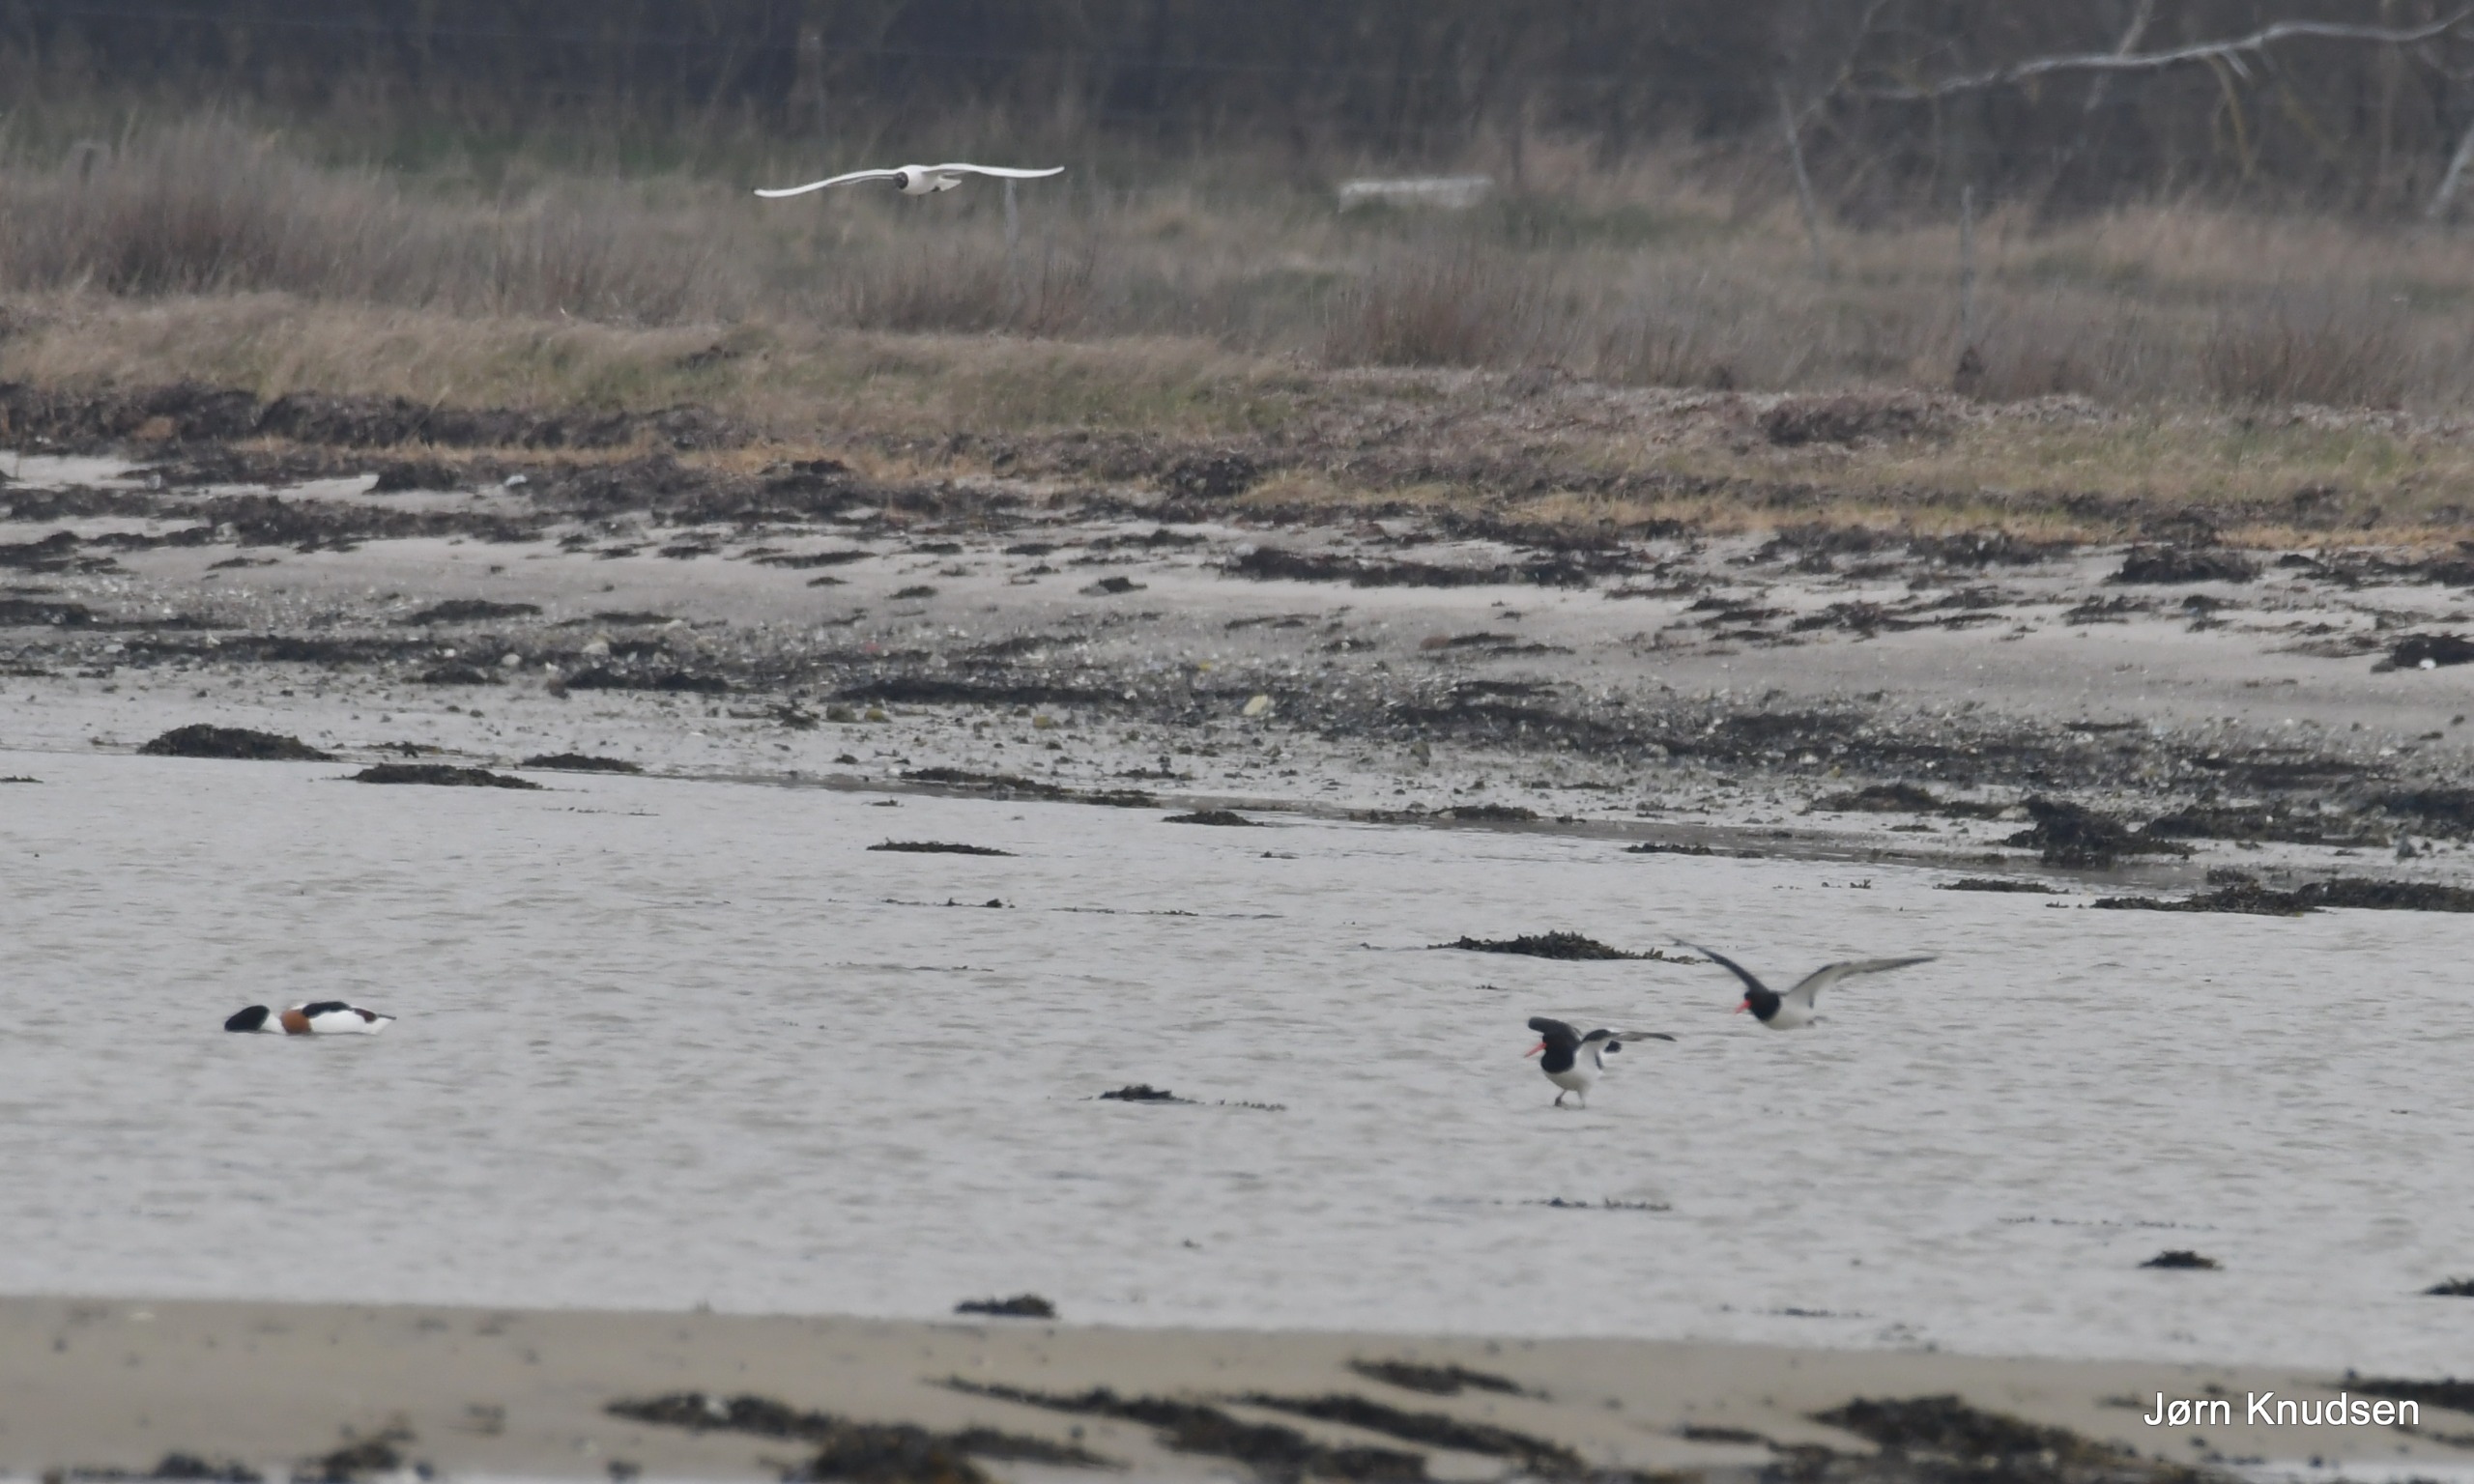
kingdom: Animalia
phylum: Chordata
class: Aves
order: Charadriiformes
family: Haematopodidae
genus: Haematopus
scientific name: Haematopus ostralegus
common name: Strandskade
